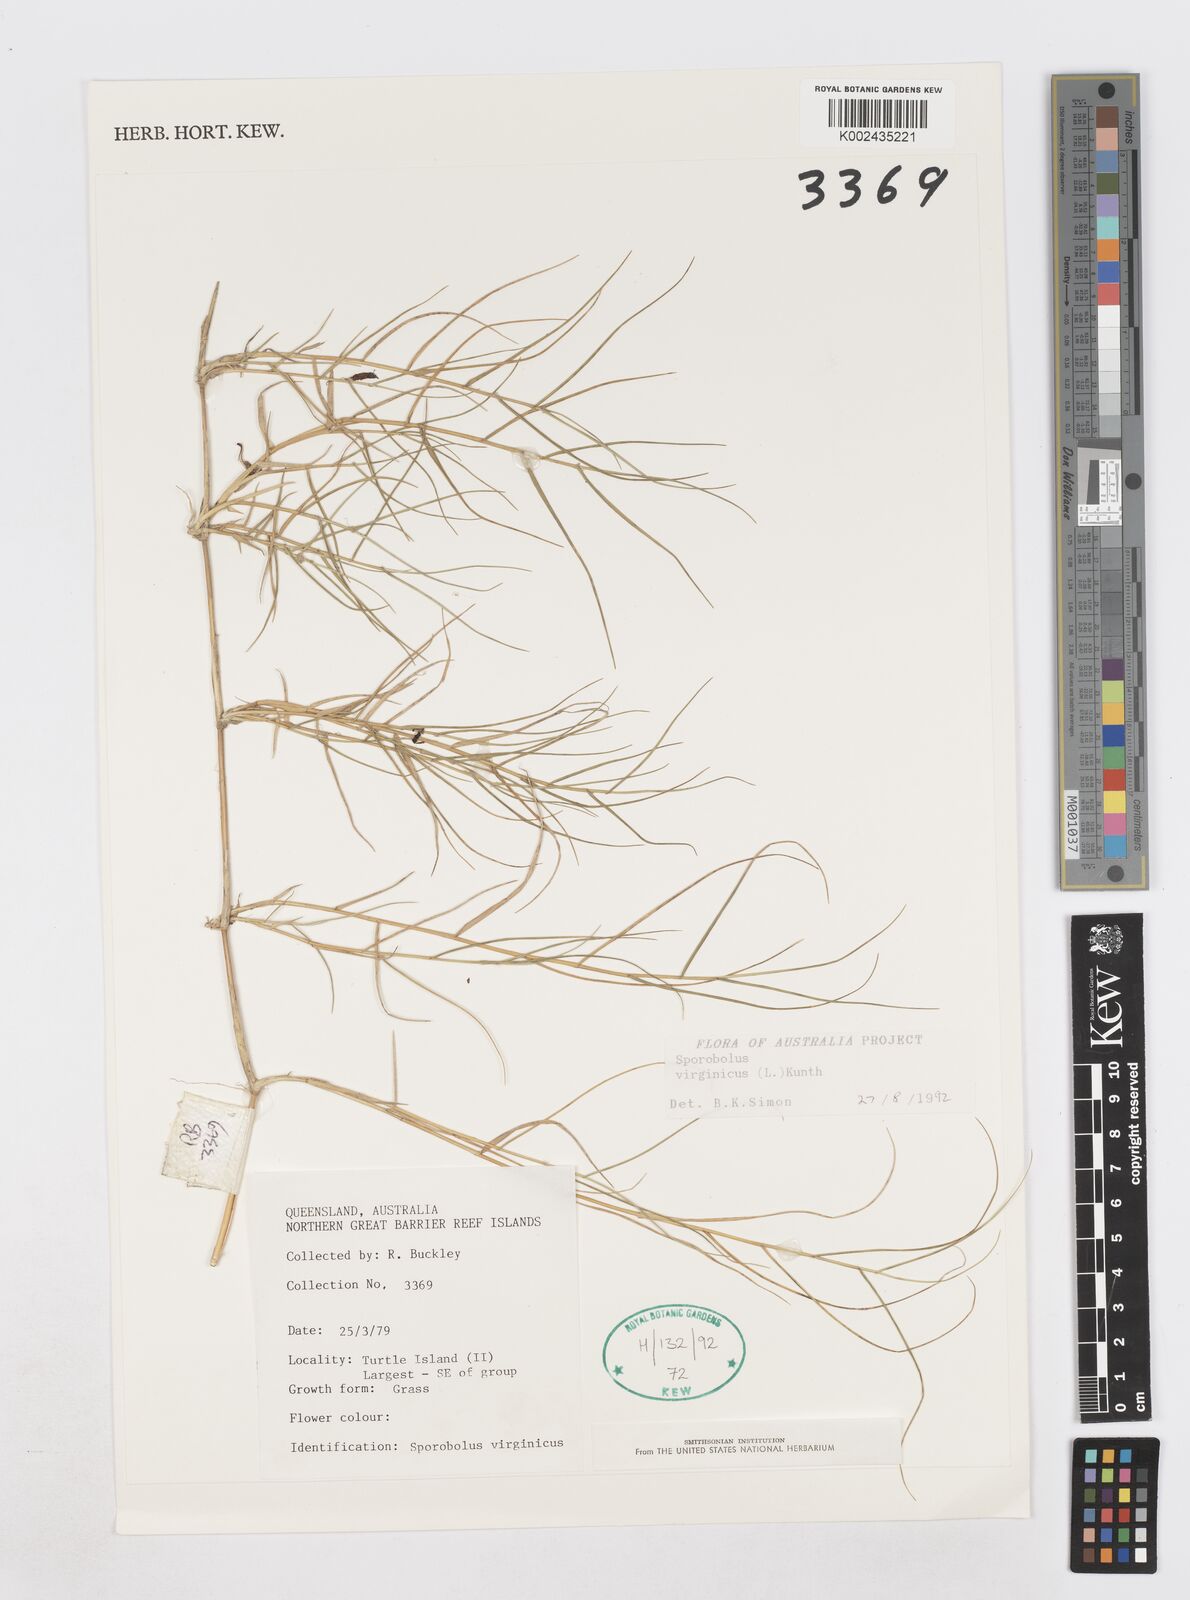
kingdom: Plantae
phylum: Tracheophyta
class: Liliopsida
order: Poales
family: Poaceae
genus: Sporobolus
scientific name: Sporobolus virginicus
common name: Beach dropseed
